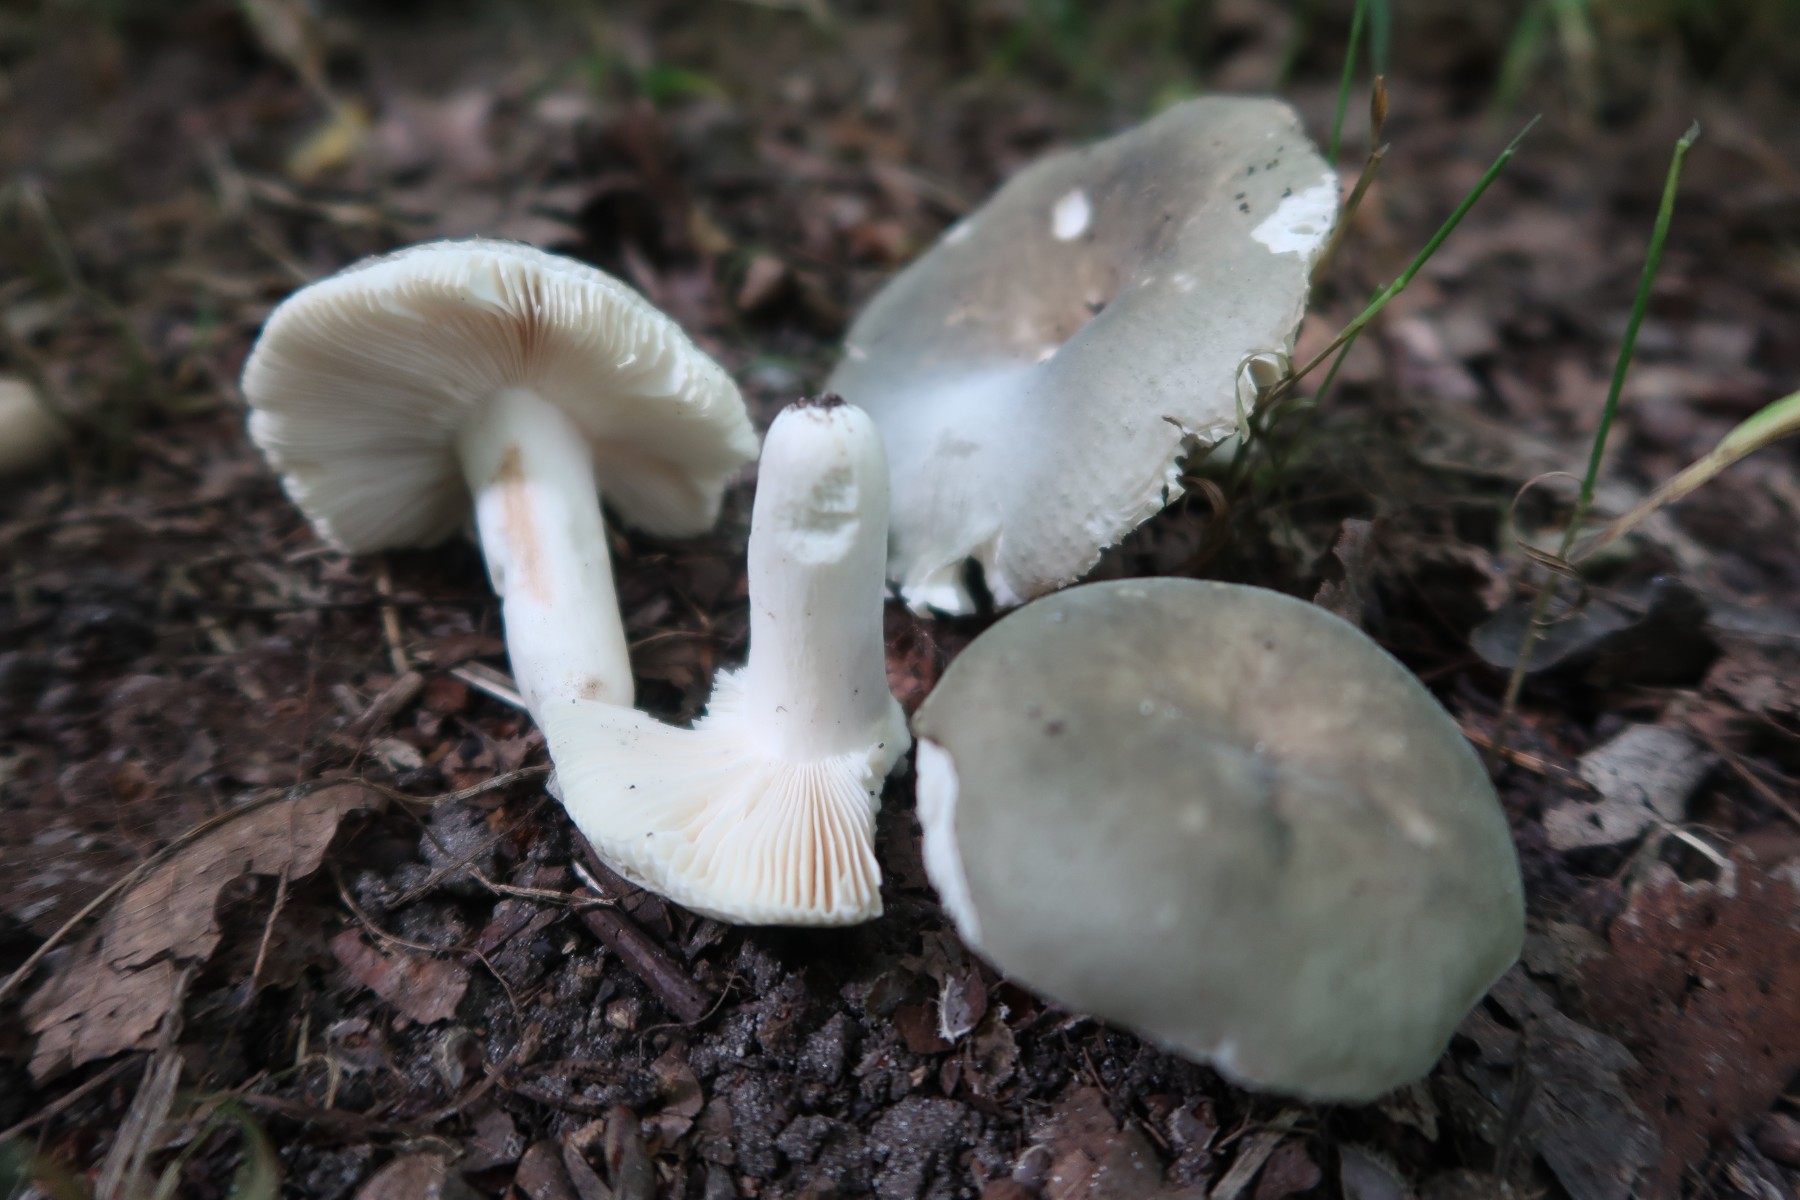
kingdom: Fungi
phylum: Basidiomycota
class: Agaricomycetes
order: Russulales
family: Russulaceae
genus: Russula
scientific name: Russula parazurea
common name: blågrå skørhat
